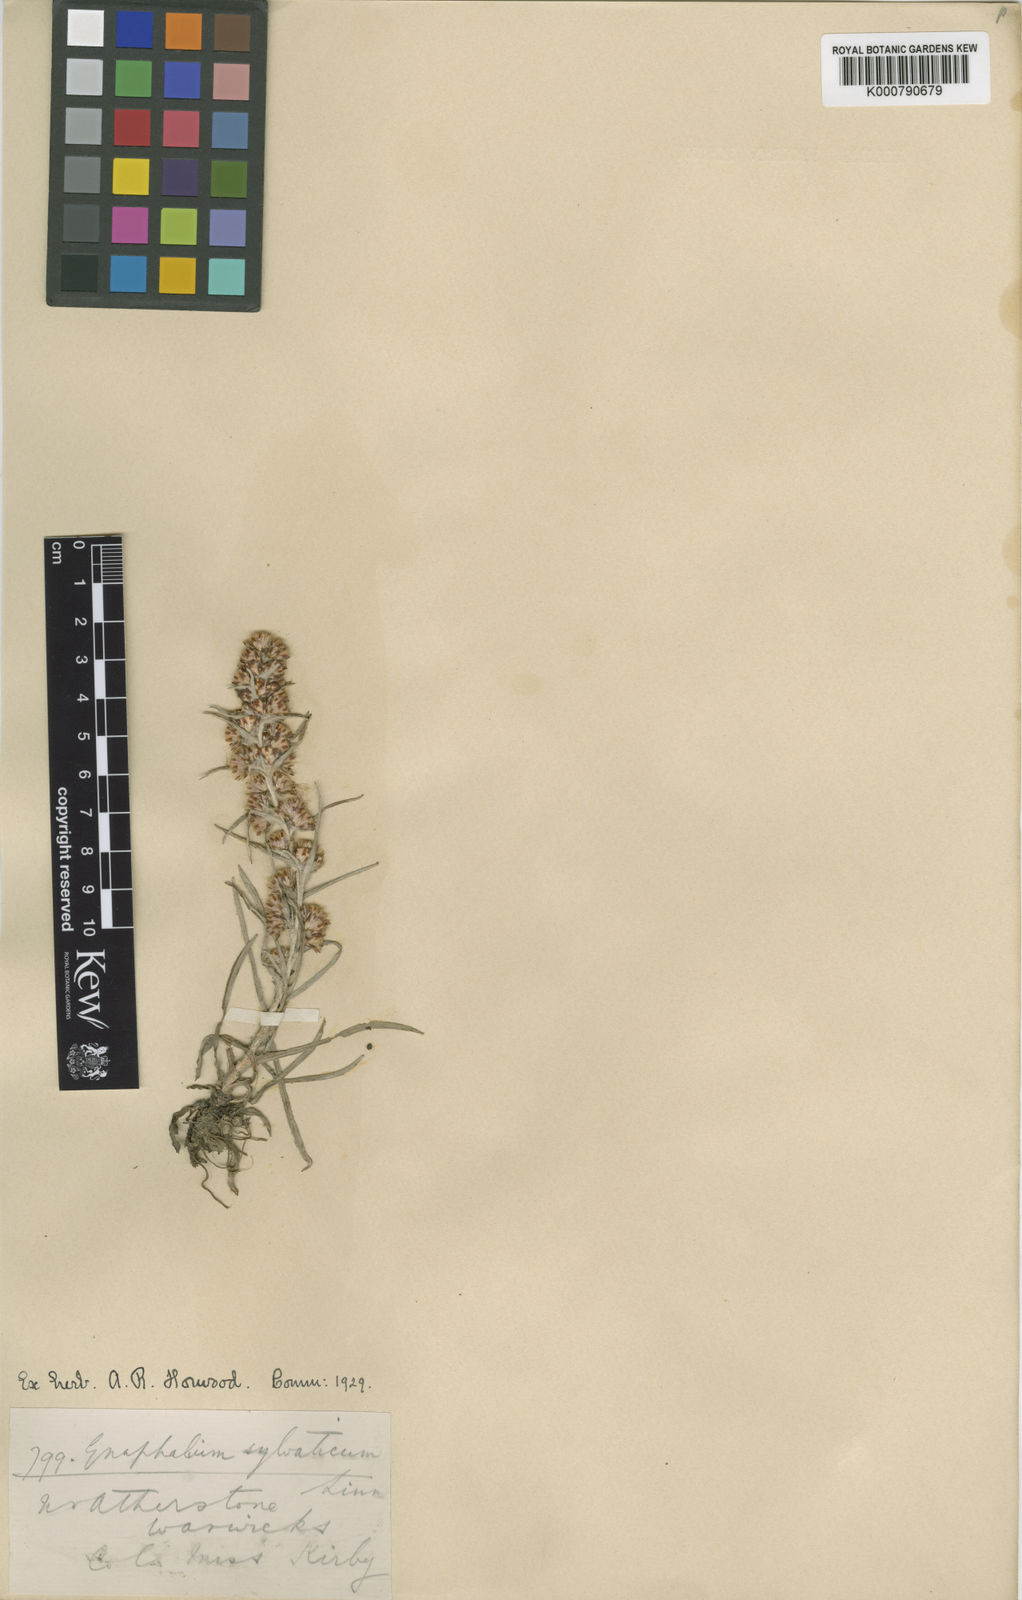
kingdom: Plantae
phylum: Tracheophyta
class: Magnoliopsida
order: Asterales
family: Asteraceae
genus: Omalotheca
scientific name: Omalotheca sylvatica
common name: Heath cudweed
